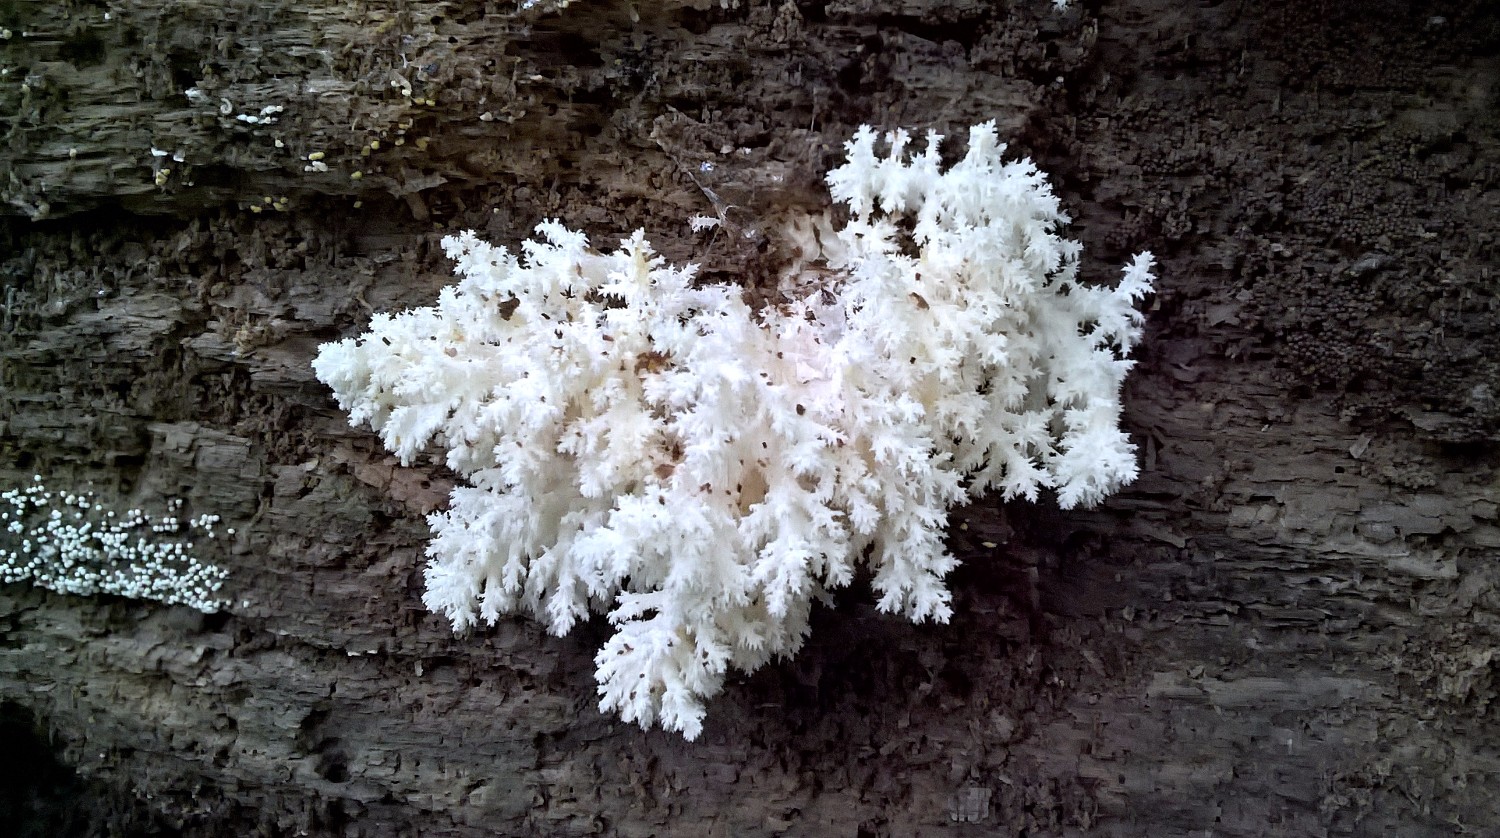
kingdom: Fungi
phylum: Basidiomycota
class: Agaricomycetes
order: Russulales
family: Hericiaceae
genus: Hericium
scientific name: Hericium coralloides
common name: koralpigsvamp
